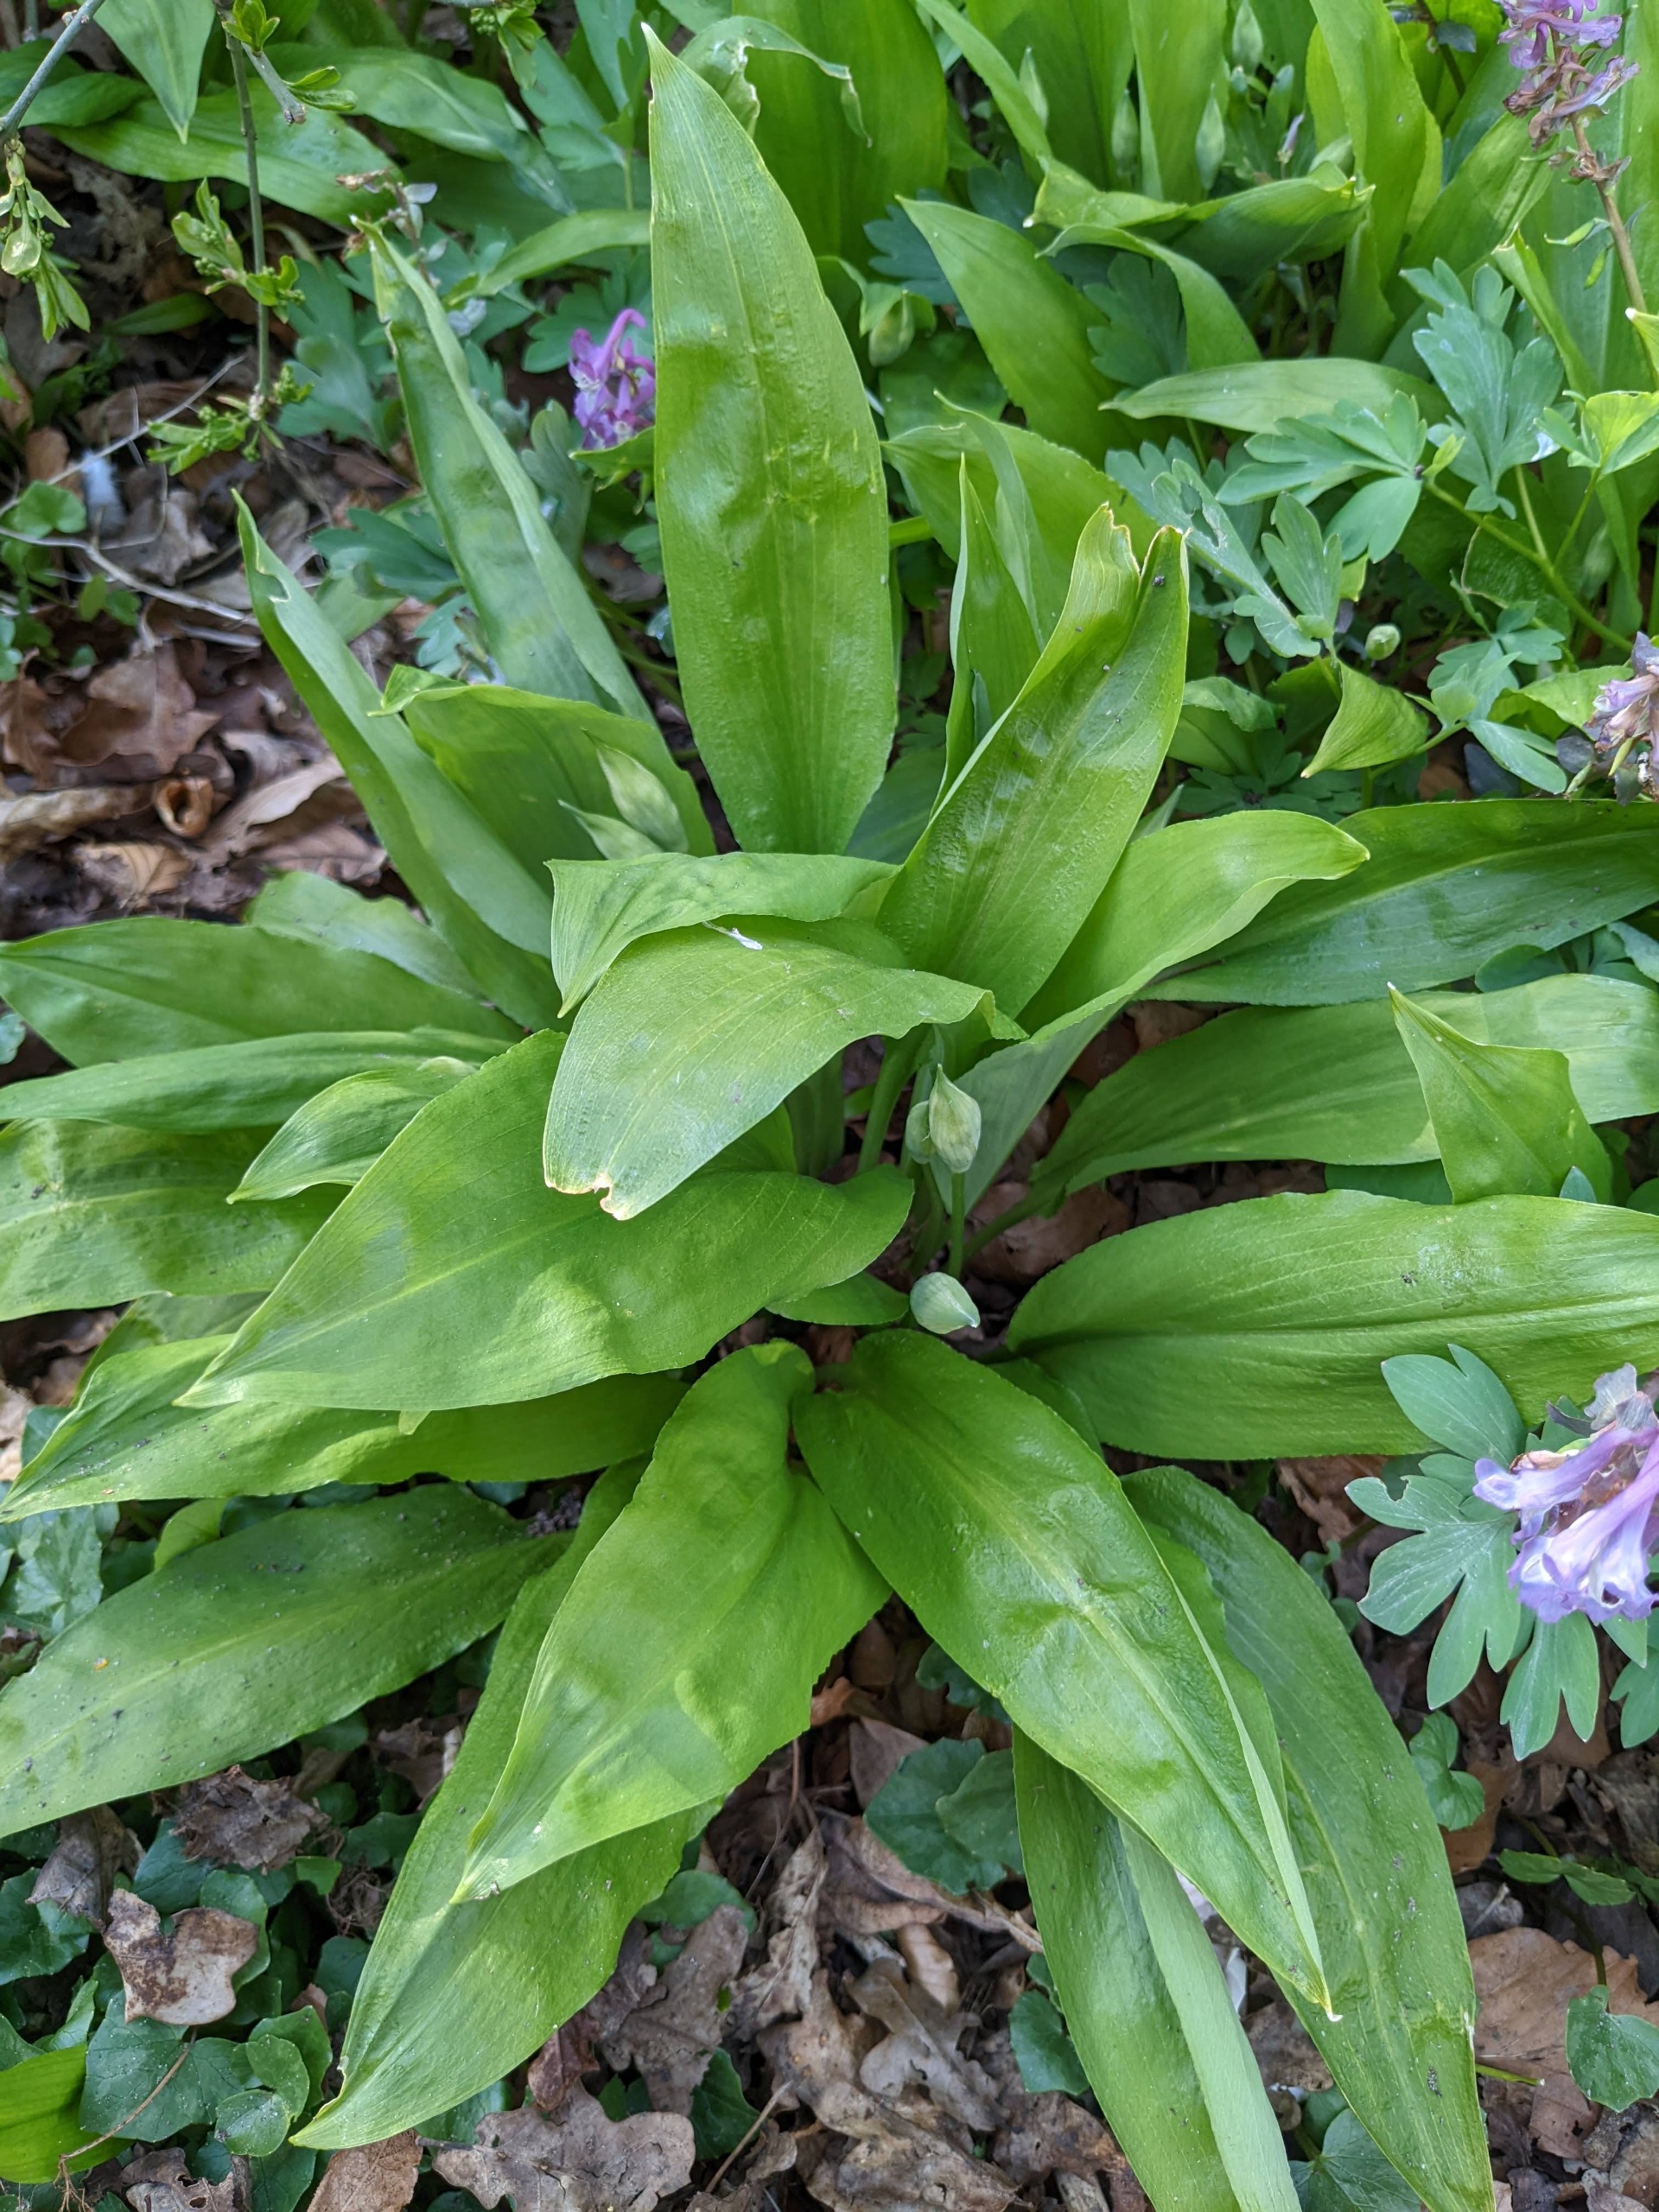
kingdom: Plantae
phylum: Tracheophyta
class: Liliopsida
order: Asparagales
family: Amaryllidaceae
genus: Allium
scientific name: Allium ursinum
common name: Rams-løg
